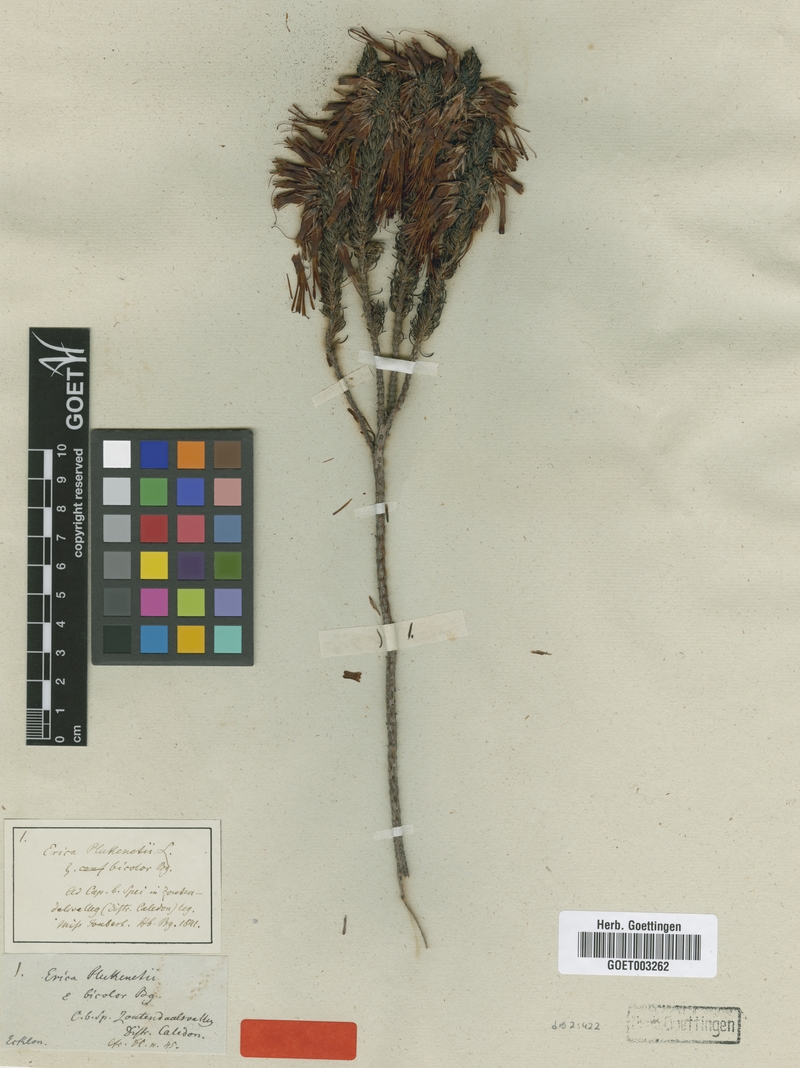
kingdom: Plantae
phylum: Tracheophyta
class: Magnoliopsida
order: Ericales
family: Ericaceae
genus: Erica
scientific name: Erica plukenetii
